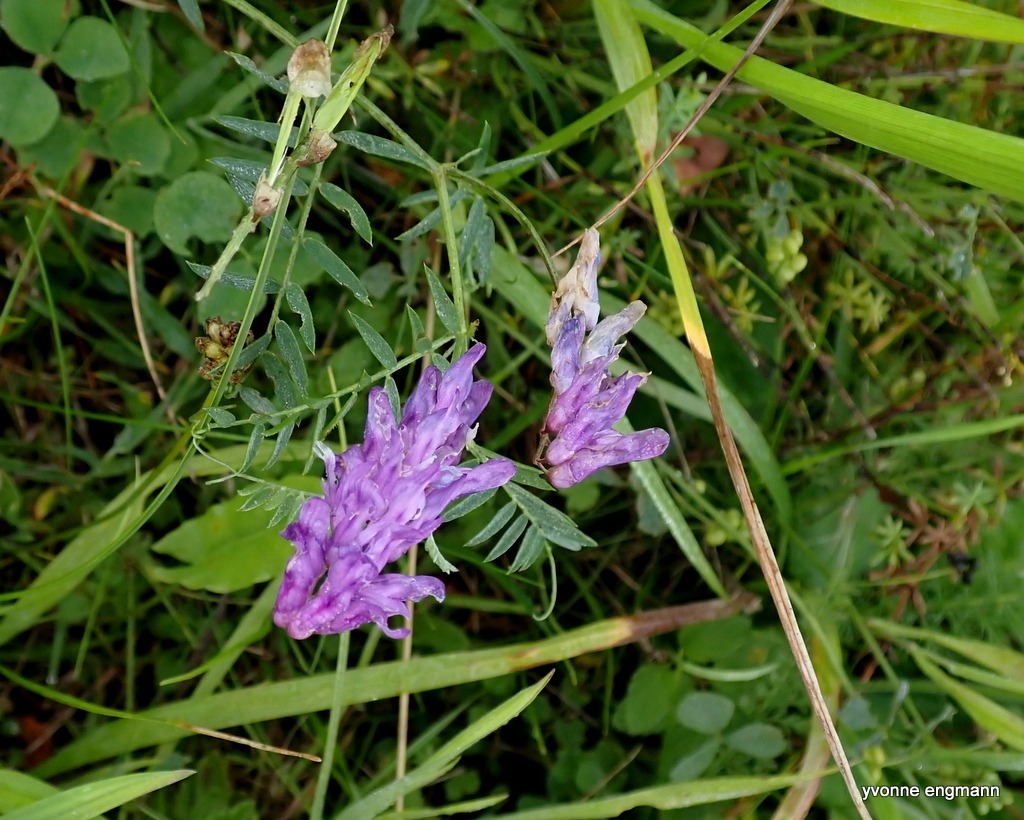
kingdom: Plantae
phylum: Tracheophyta
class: Magnoliopsida
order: Fabales
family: Fabaceae
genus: Vicia
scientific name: Vicia cracca
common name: Muse-vikke
